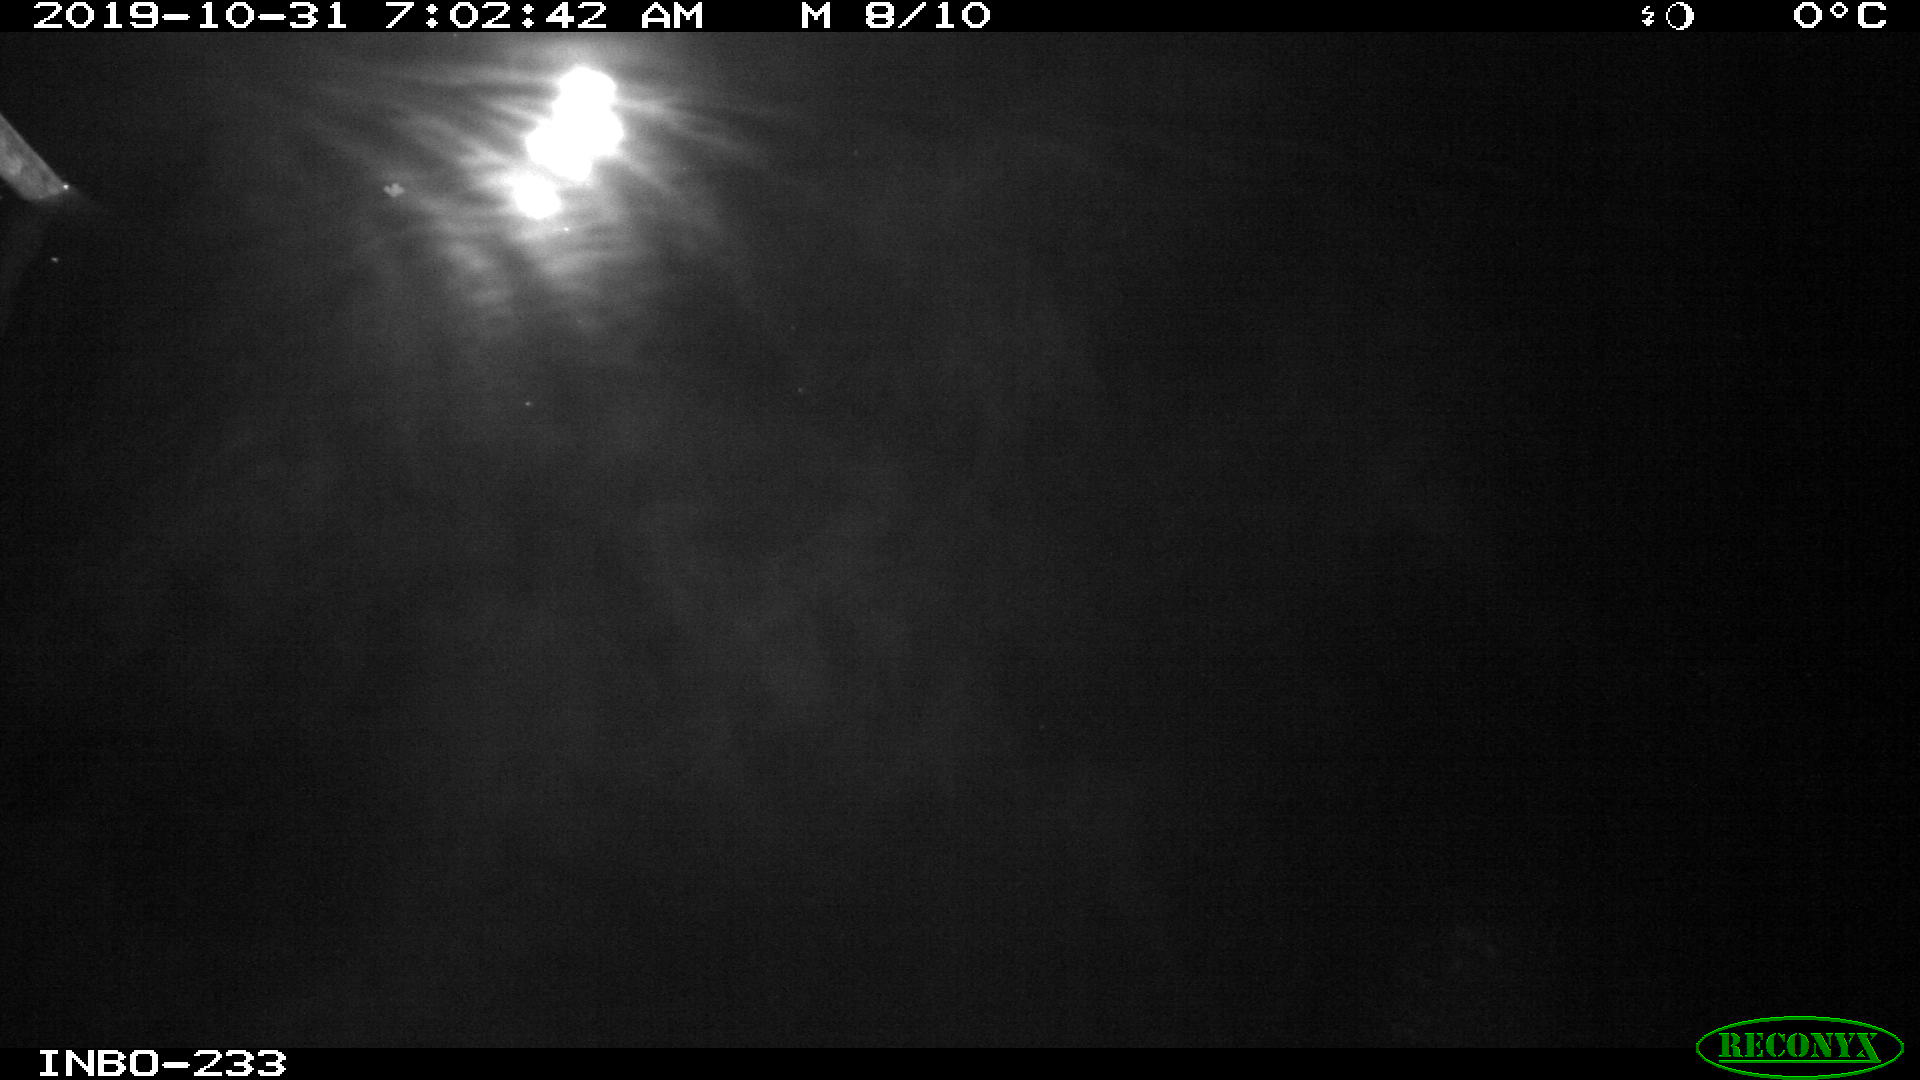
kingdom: Animalia
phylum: Chordata
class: Aves
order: Anseriformes
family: Anatidae
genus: Anas
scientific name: Anas platyrhynchos
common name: Mallard
